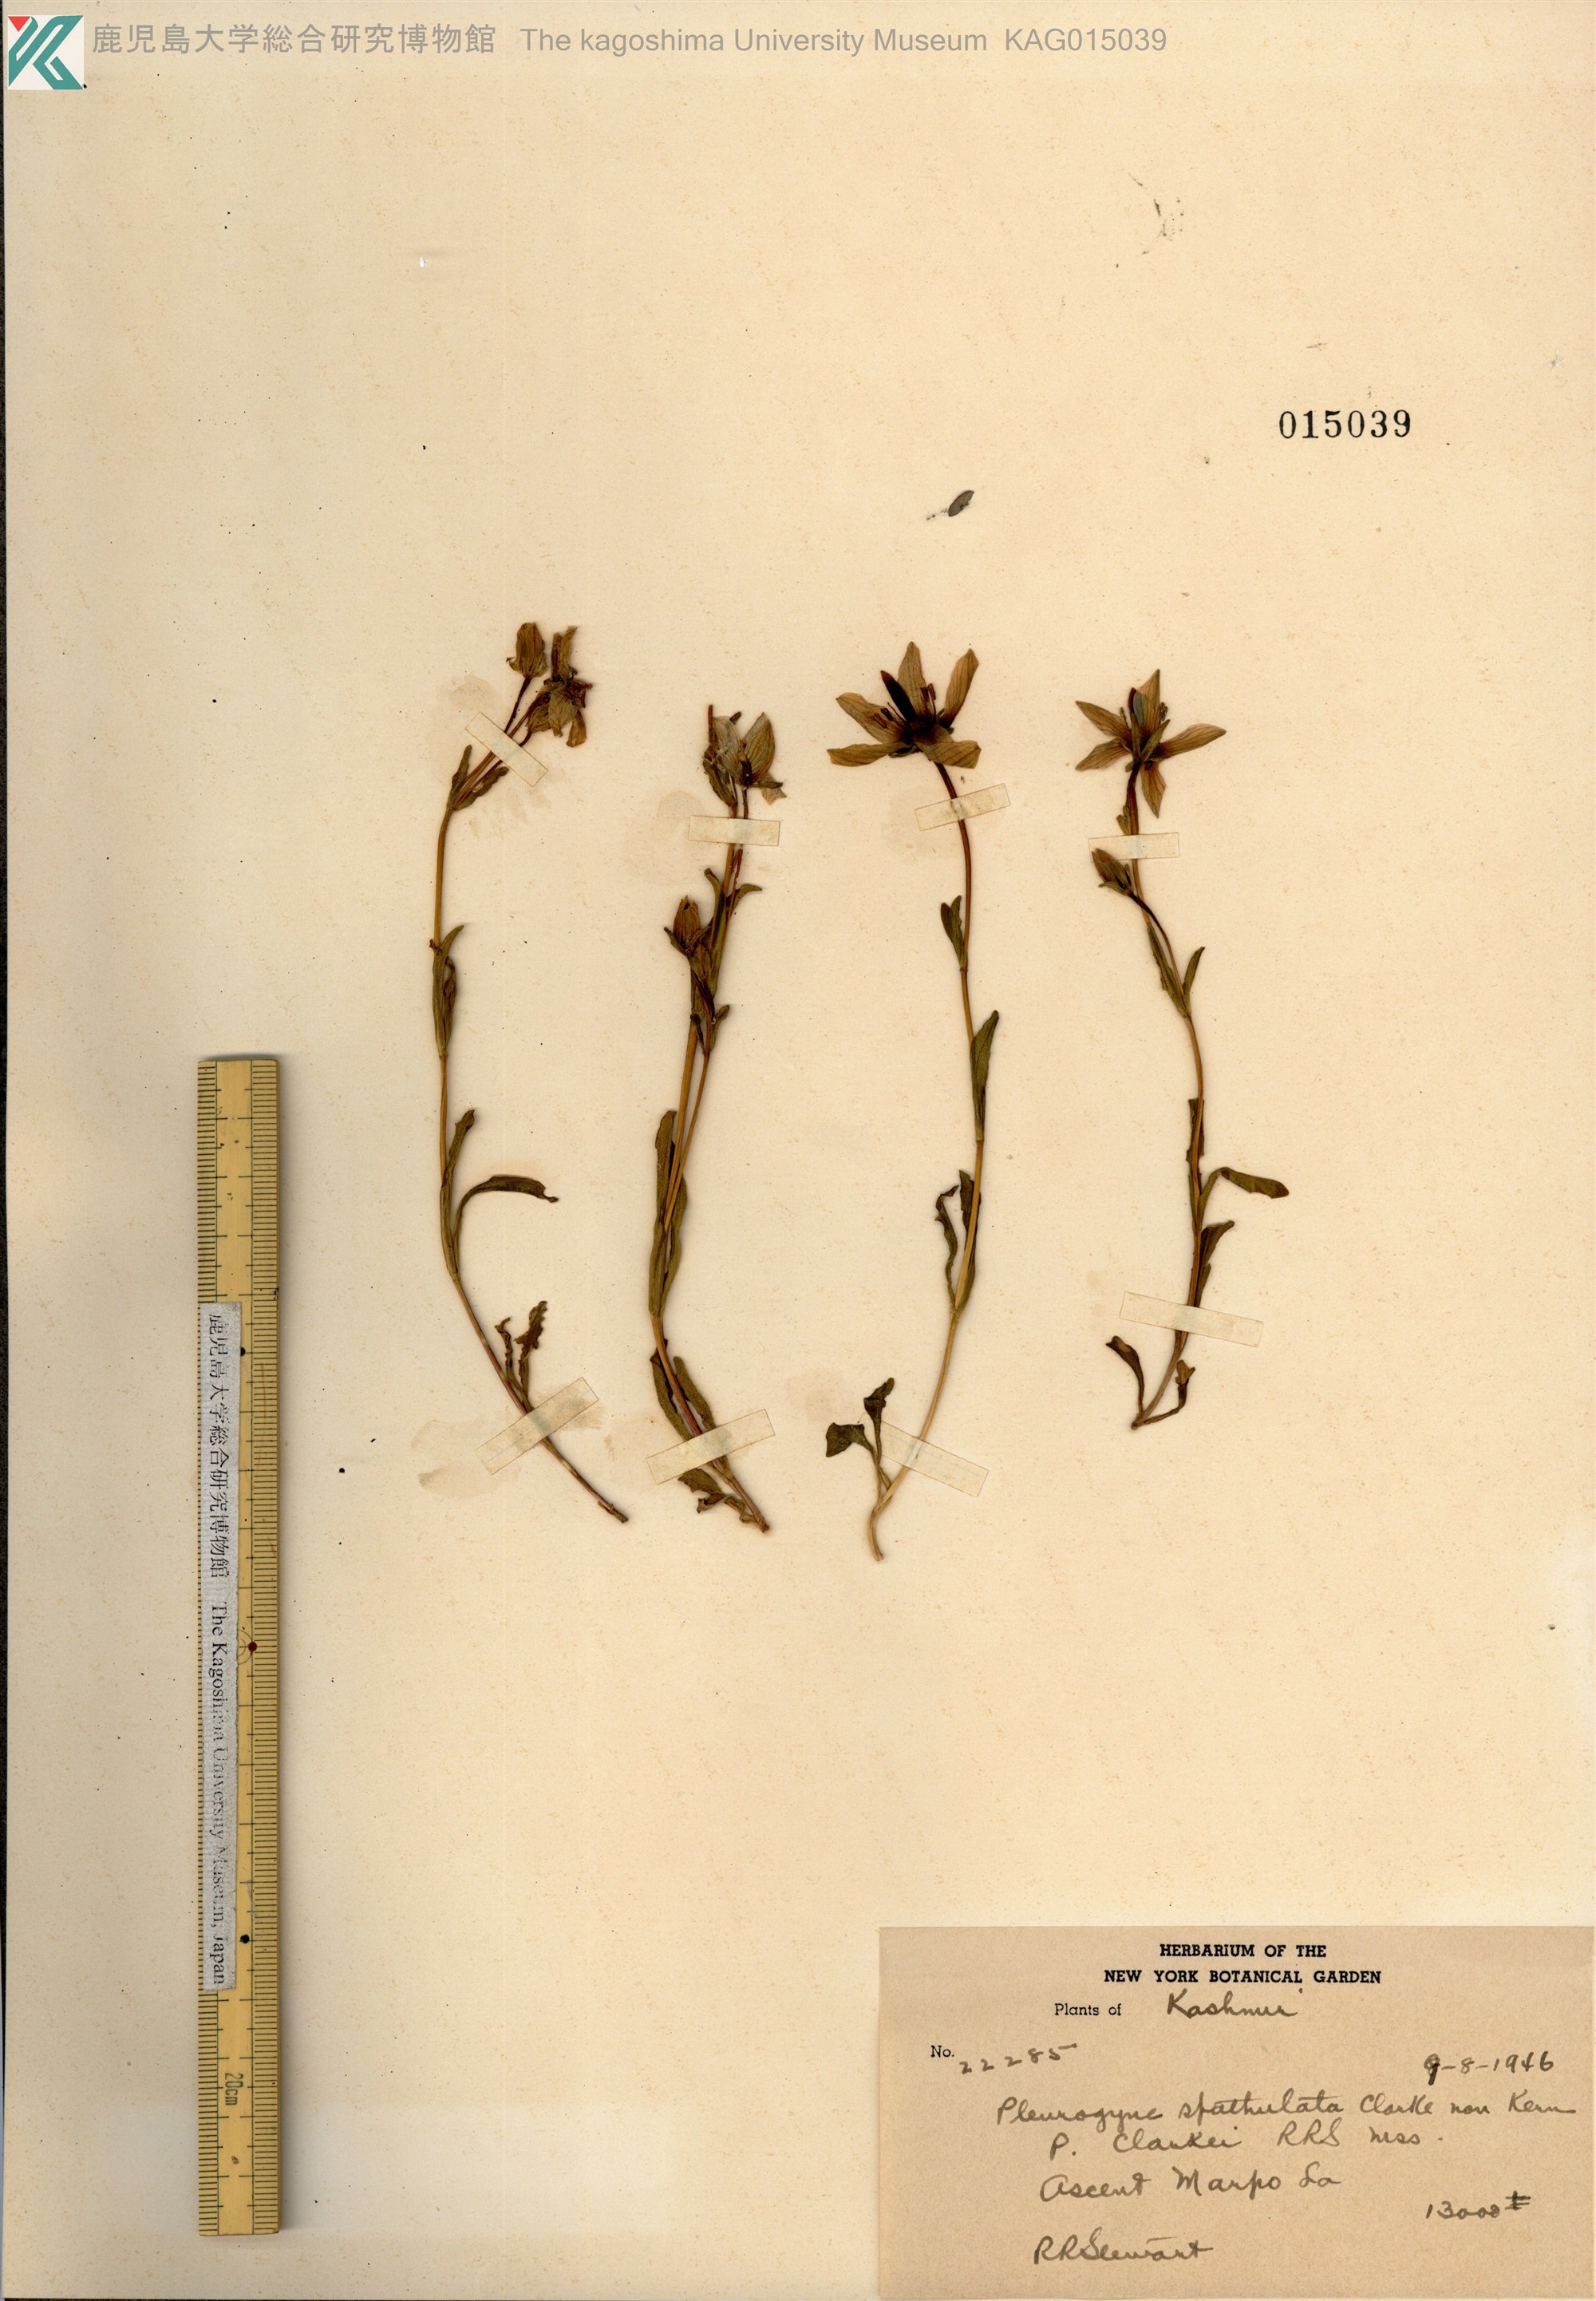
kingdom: Plantae
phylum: Tracheophyta
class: Magnoliopsida
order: Gentianales
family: Gentianaceae
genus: Lomatogonium
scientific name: Lomatogonium caeruleum
